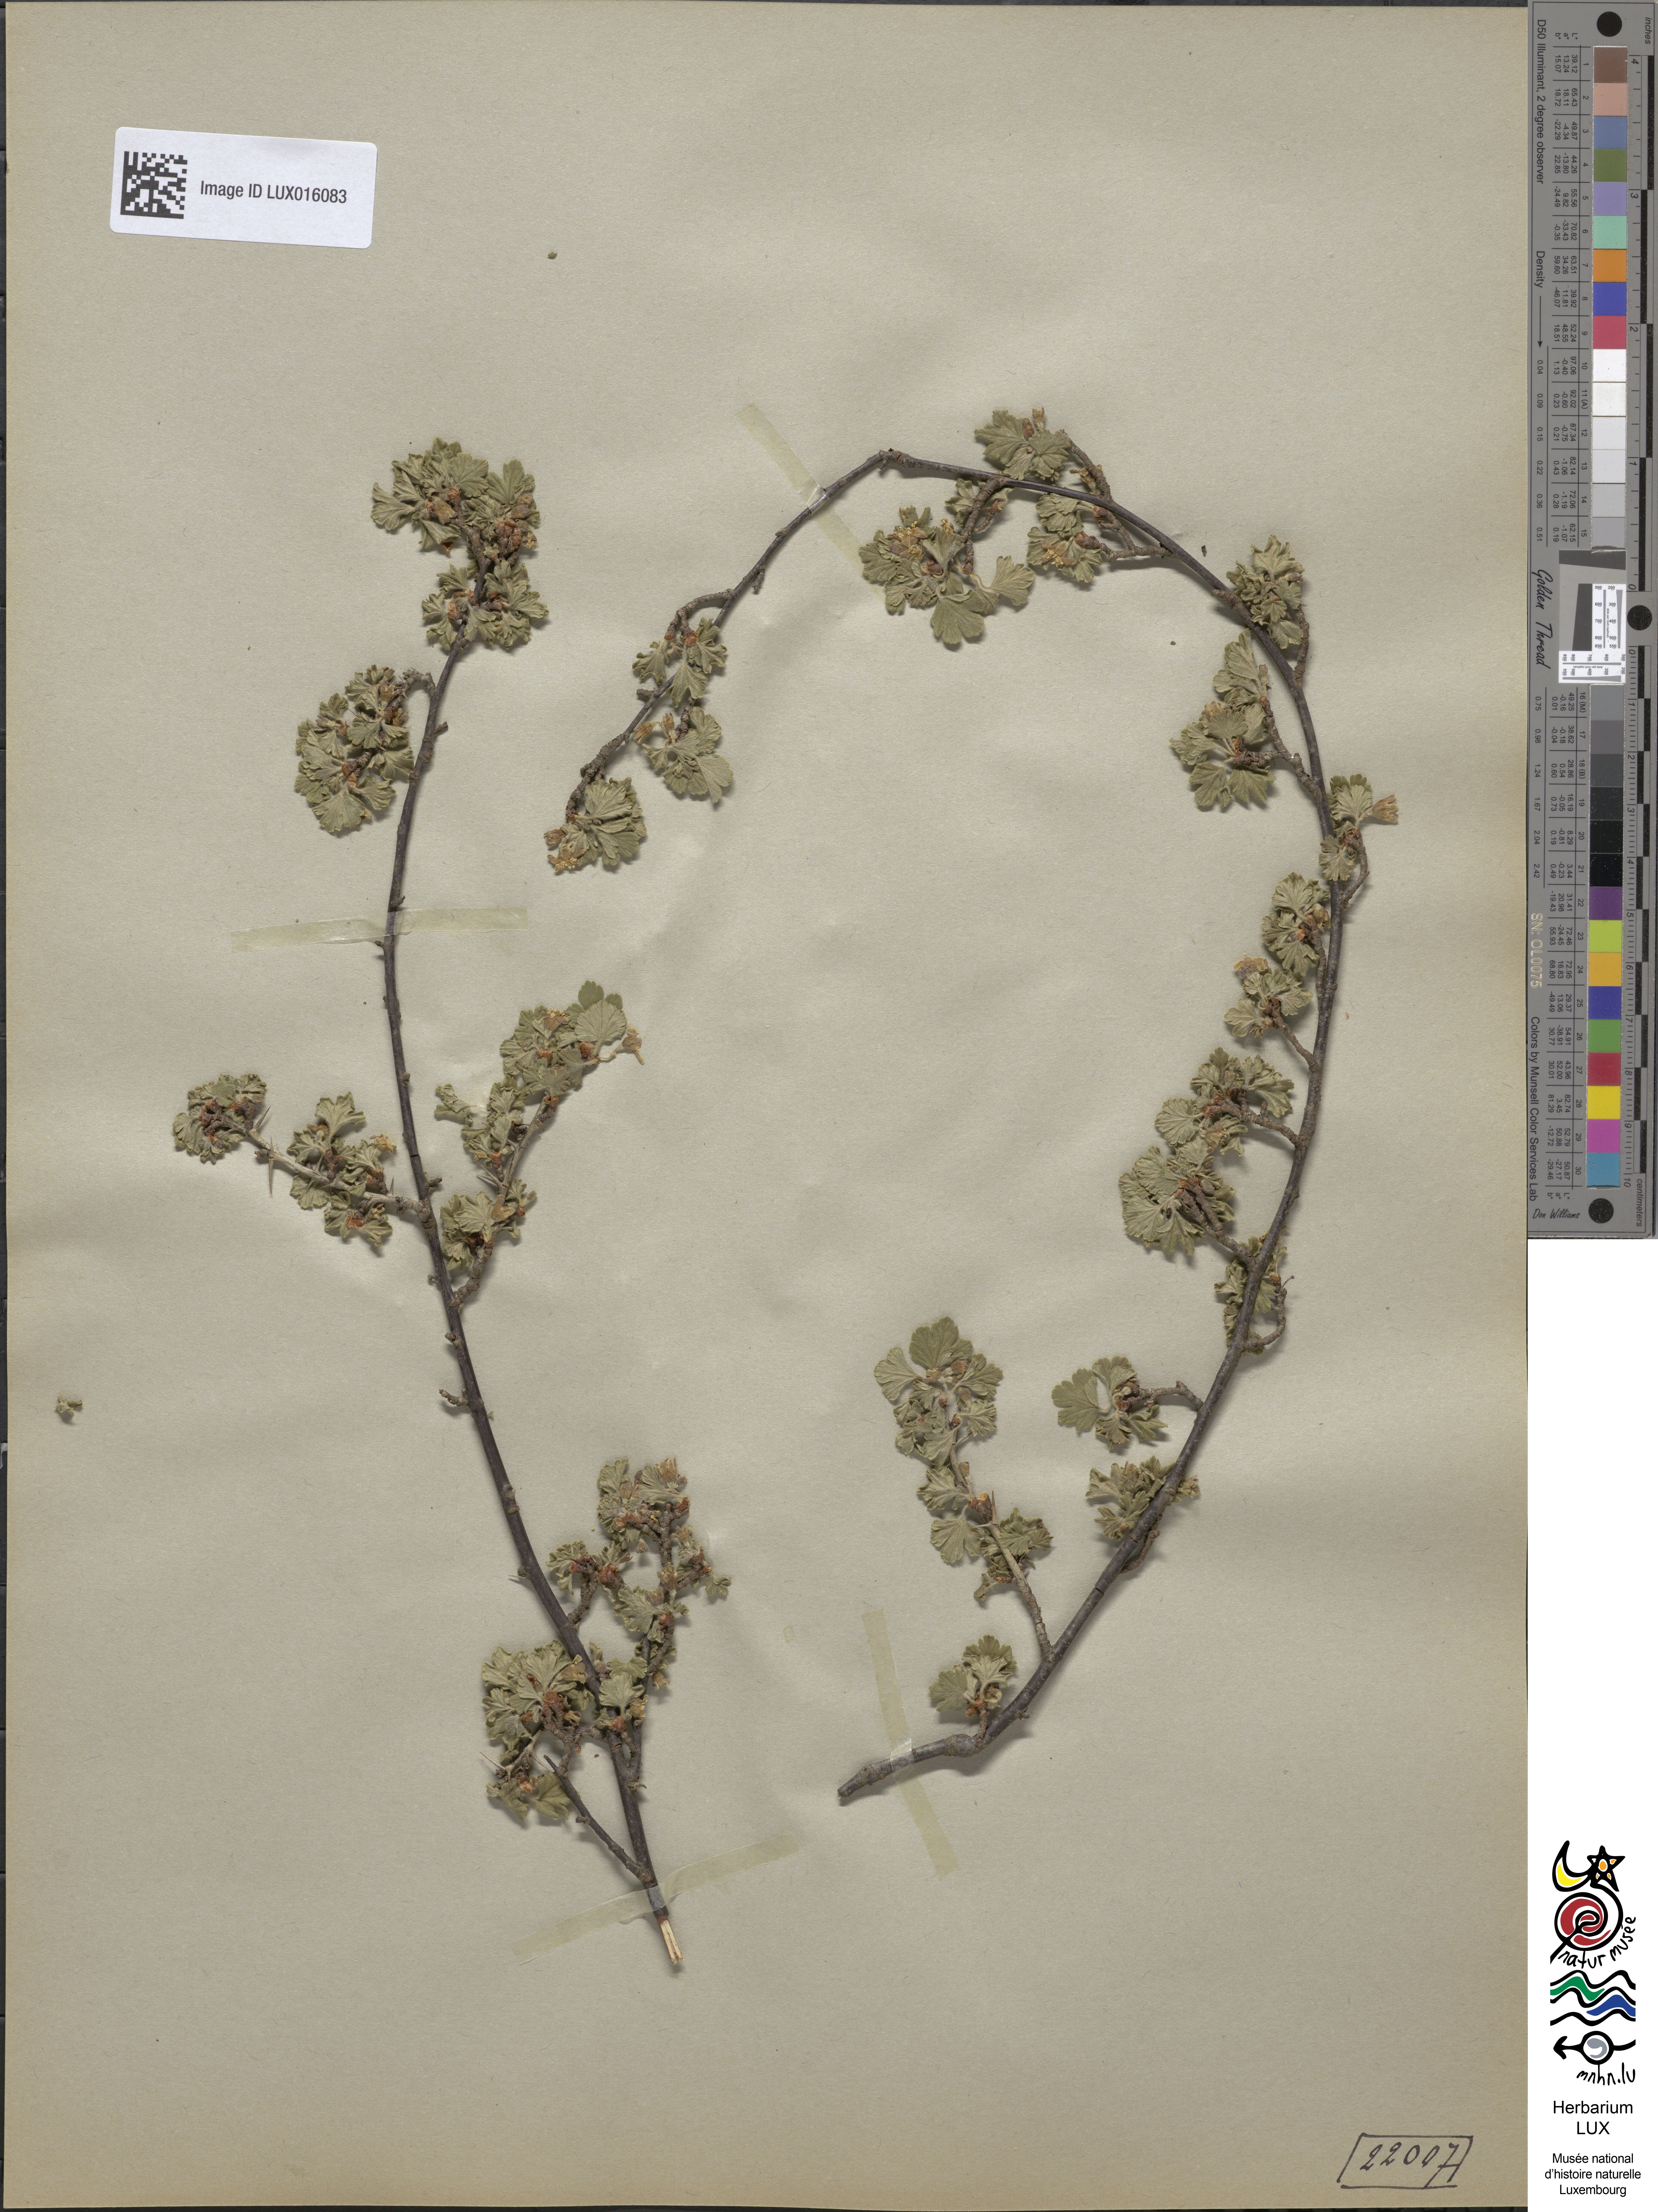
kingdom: Plantae
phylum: Tracheophyta
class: Magnoliopsida
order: Saxifragales
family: Grossulariaceae
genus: Ribes
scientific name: Ribes uva-crispa
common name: Gooseberry
